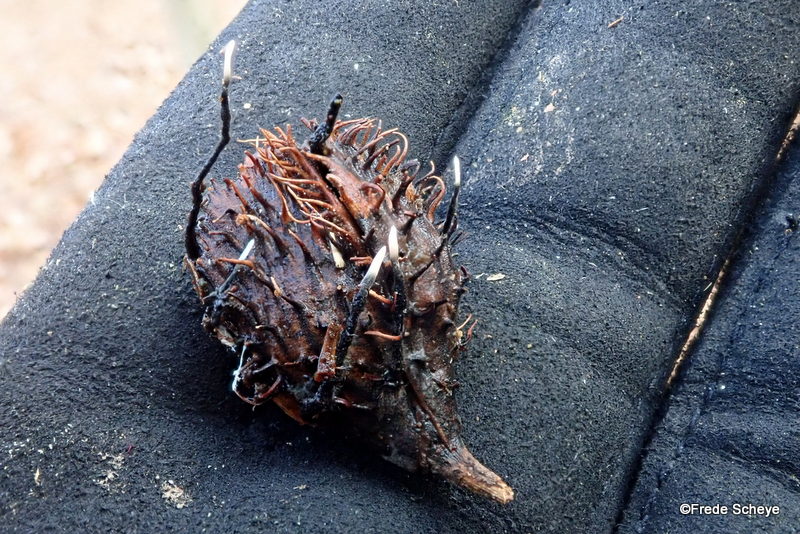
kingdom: Fungi
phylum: Ascomycota
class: Sordariomycetes
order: Xylariales
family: Xylariaceae
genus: Xylaria
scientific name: Xylaria carpophila
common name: bogskål-stødsvamp
